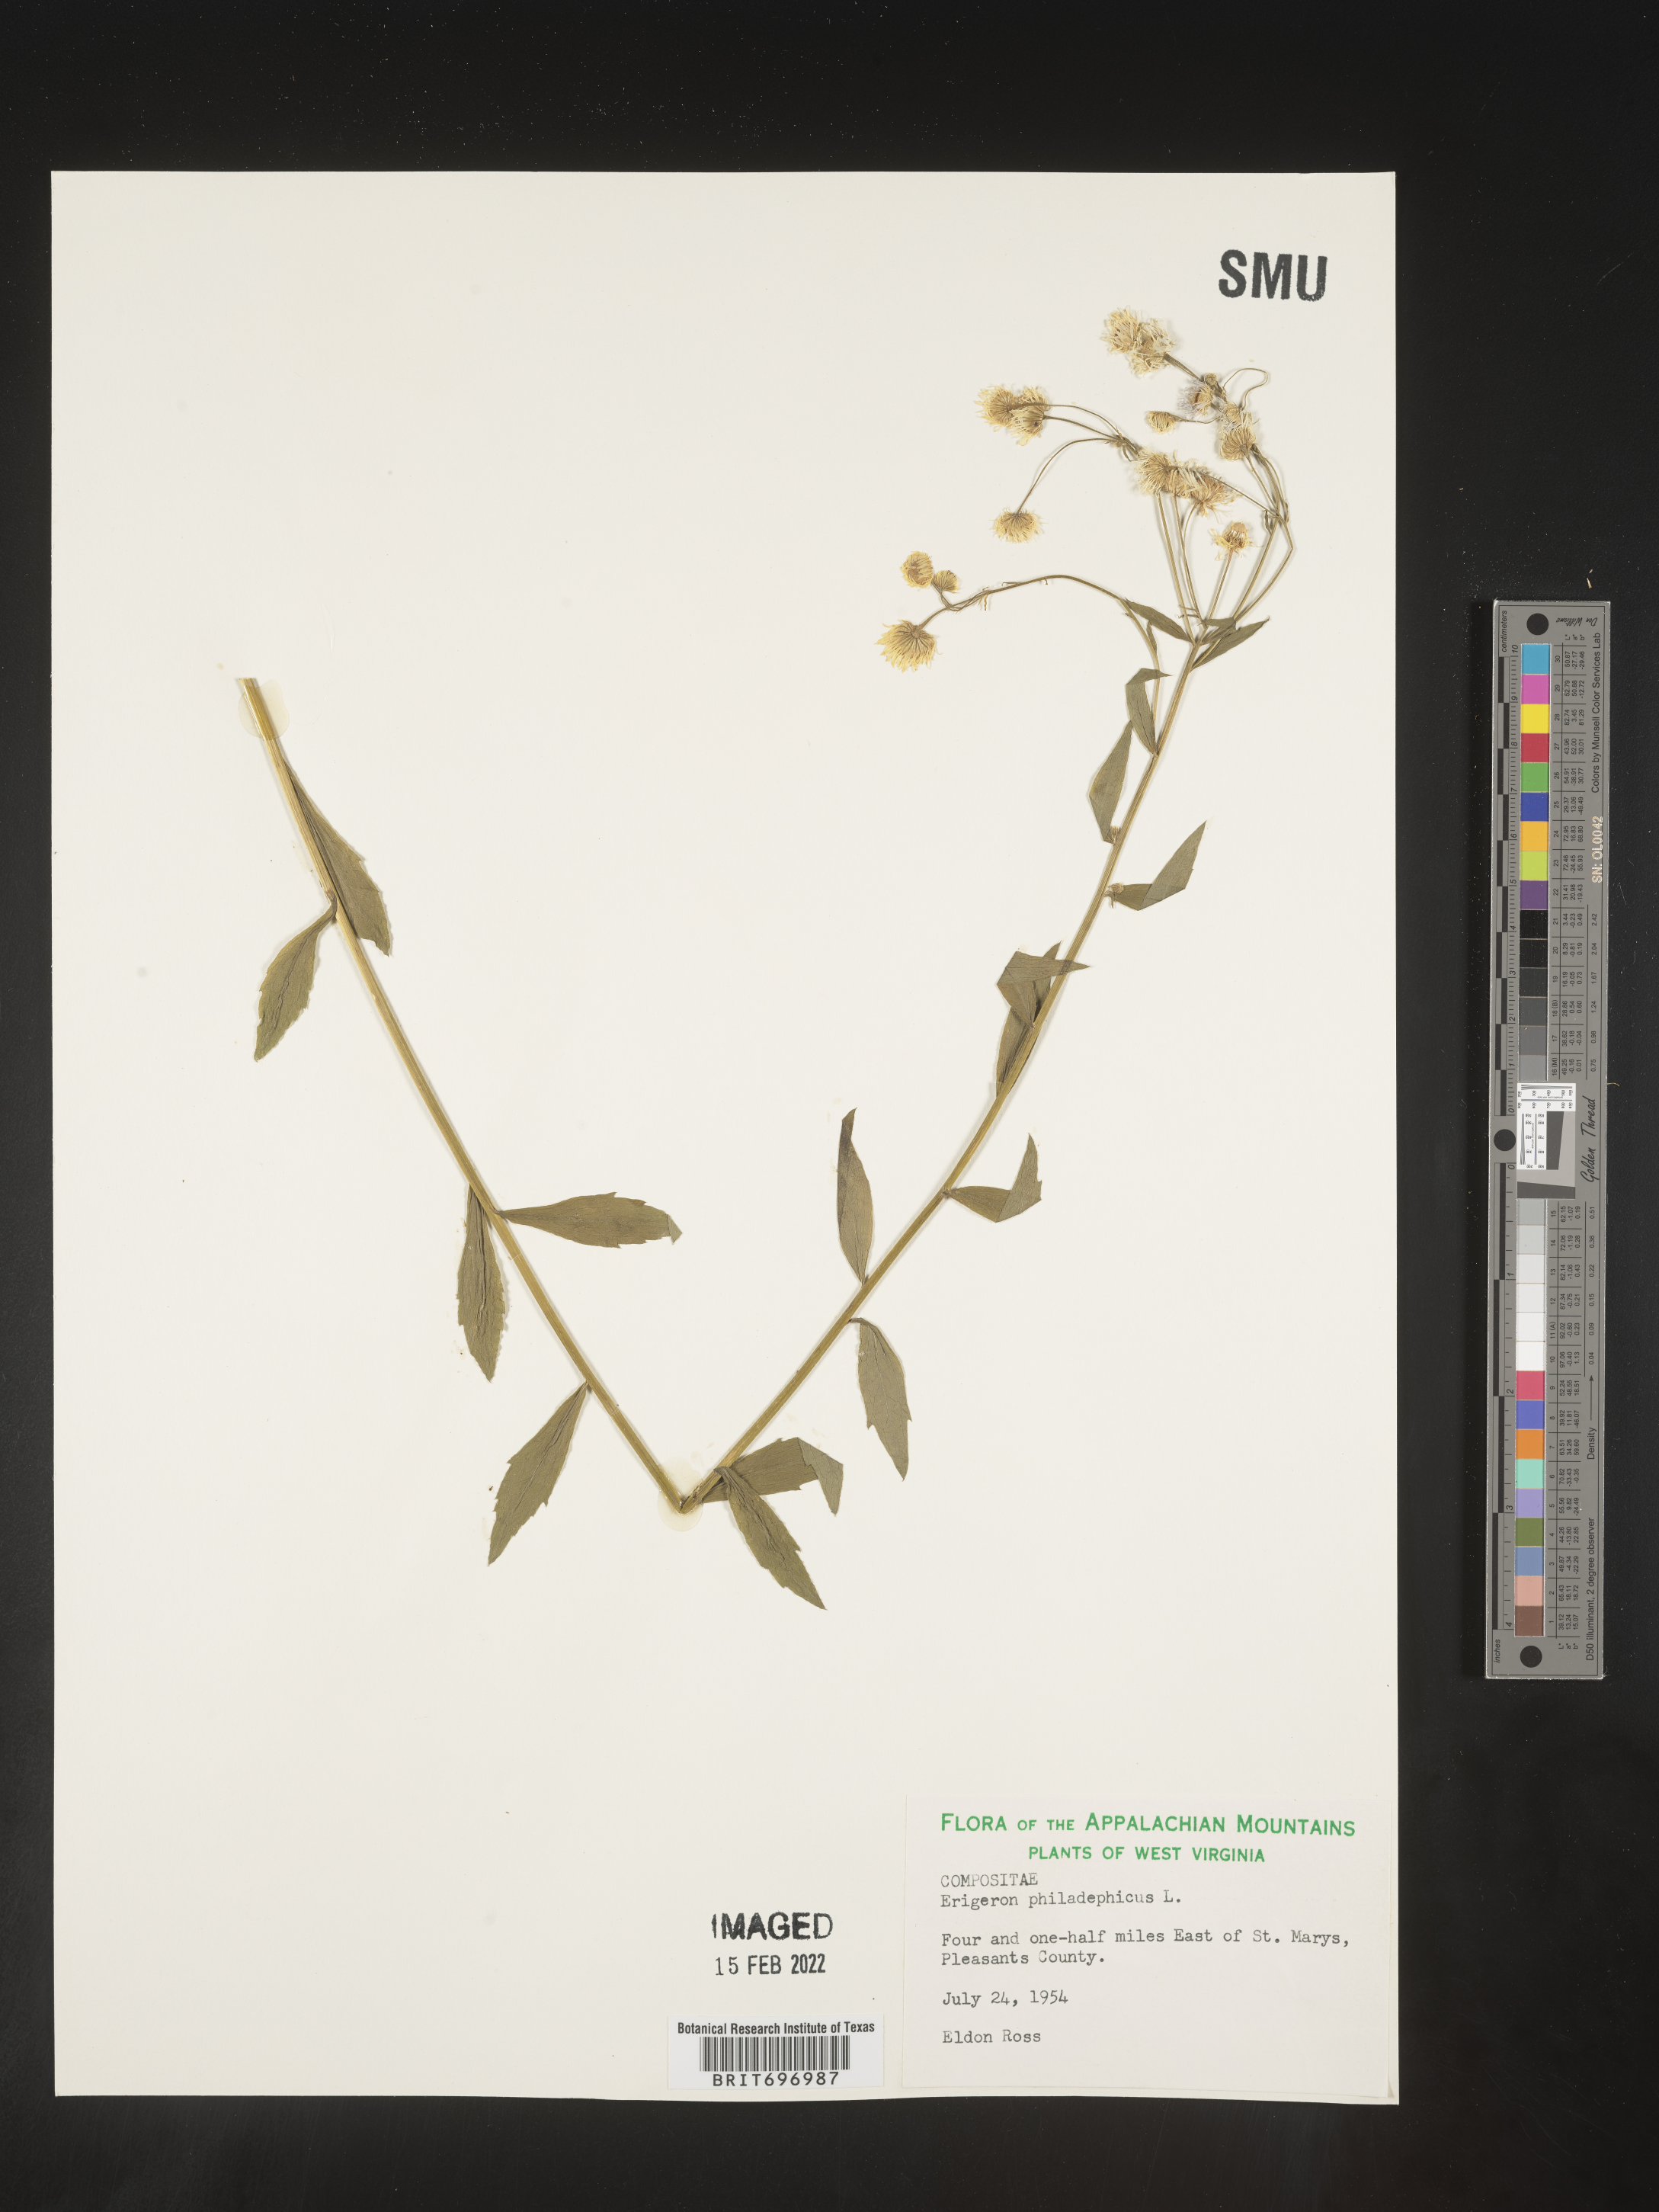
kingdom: Plantae
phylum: Tracheophyta
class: Magnoliopsida
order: Asterales
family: Asteraceae
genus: Erigeron
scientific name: Erigeron annuus
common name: Tall fleabane
